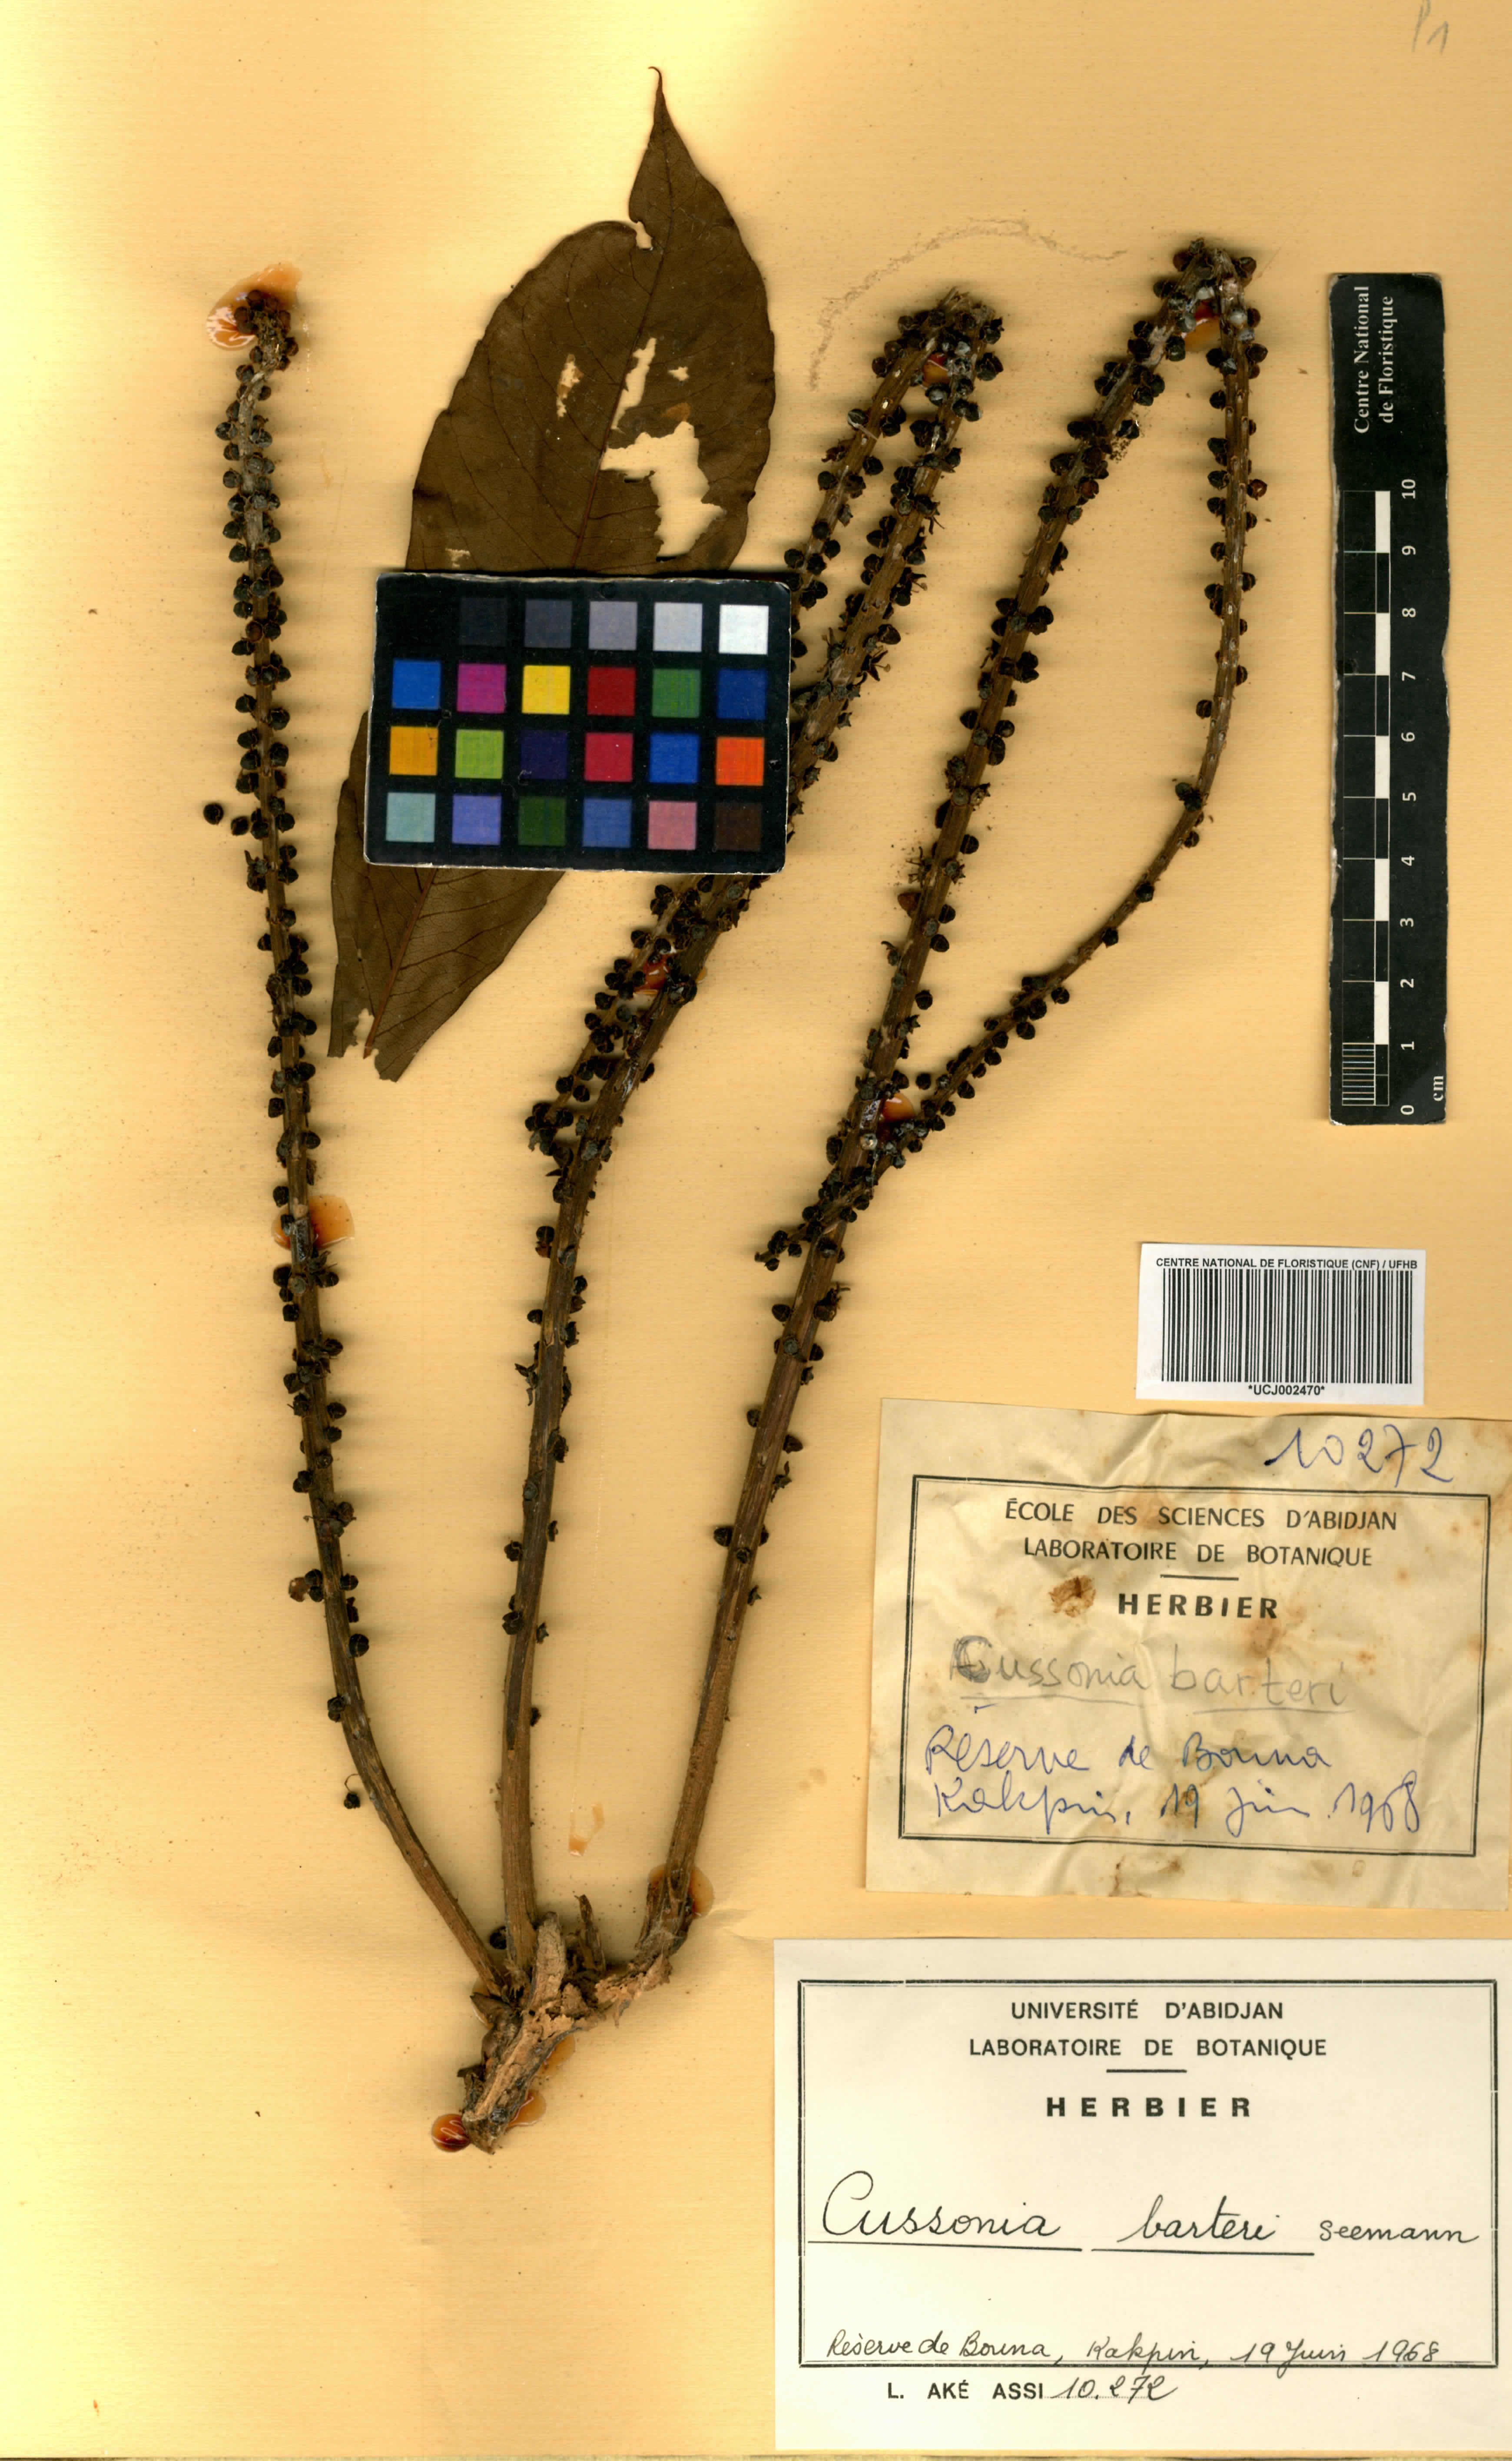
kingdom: Plantae
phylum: Tracheophyta
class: Magnoliopsida
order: Apiales
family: Araliaceae
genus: Cussonia
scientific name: Cussonia arborea
